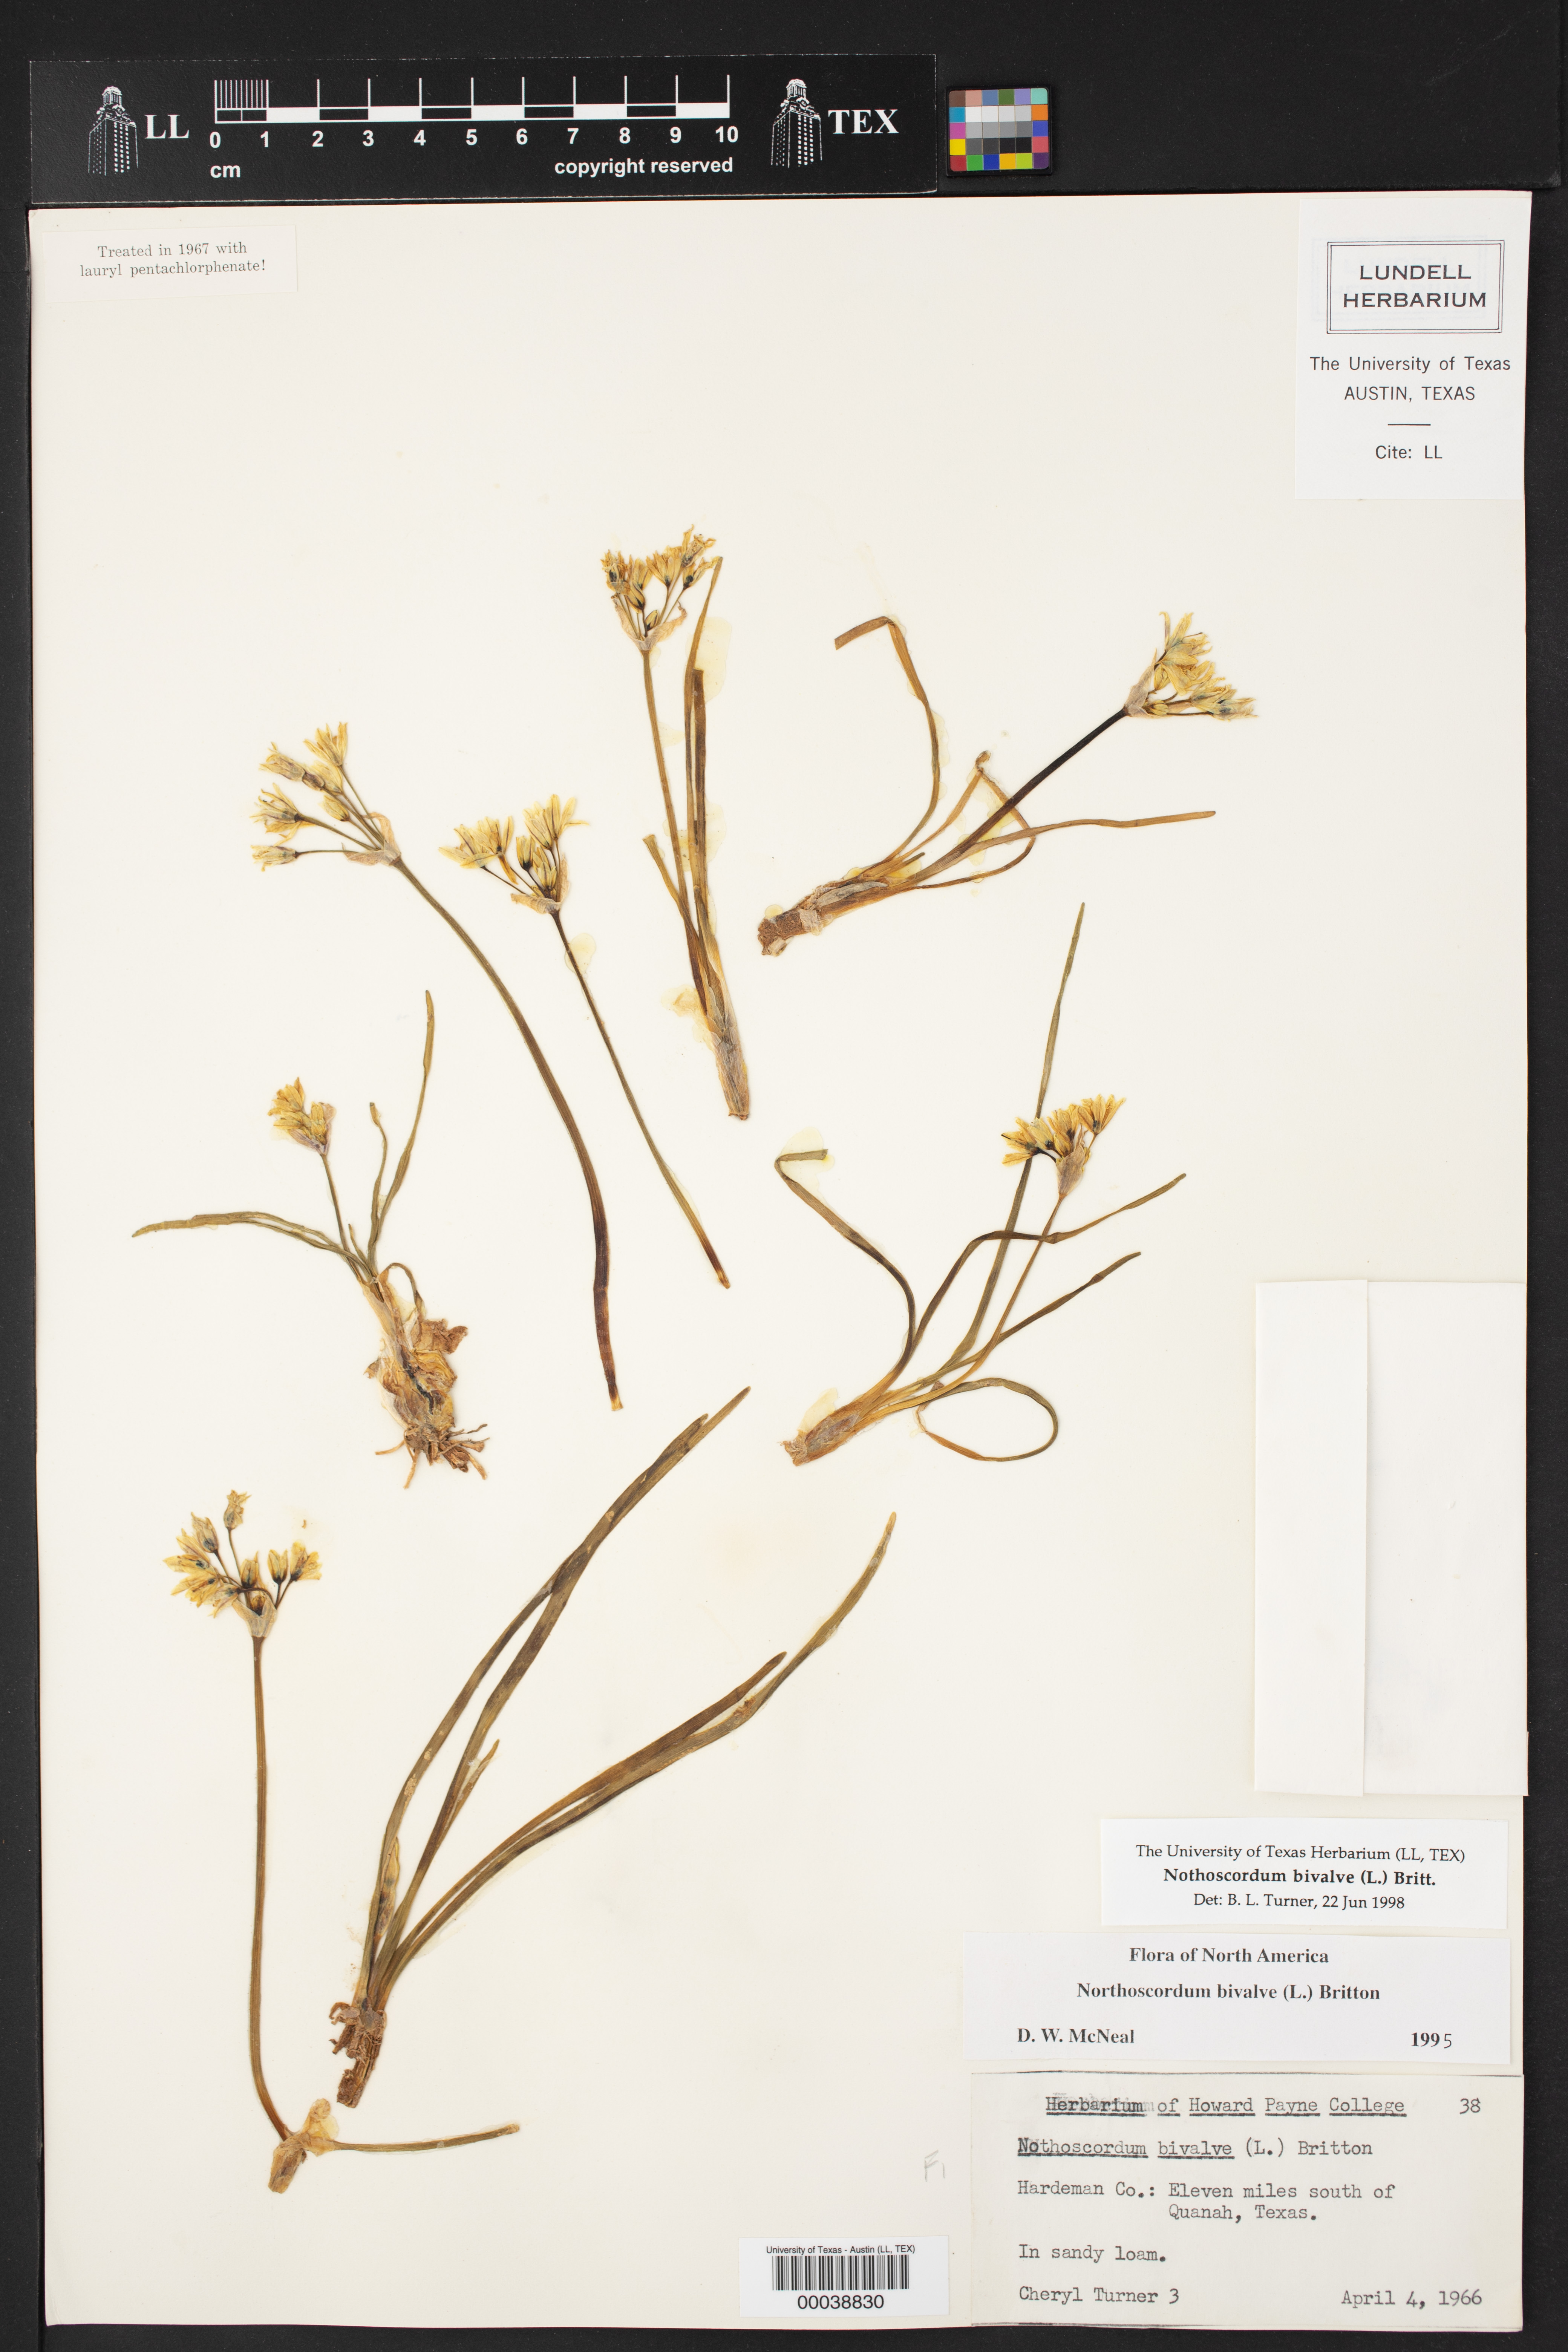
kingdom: Plantae
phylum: Tracheophyta
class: Liliopsida
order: Asparagales
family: Amaryllidaceae
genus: Nothoscordum
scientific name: Nothoscordum bivalve
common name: Crow-poison
